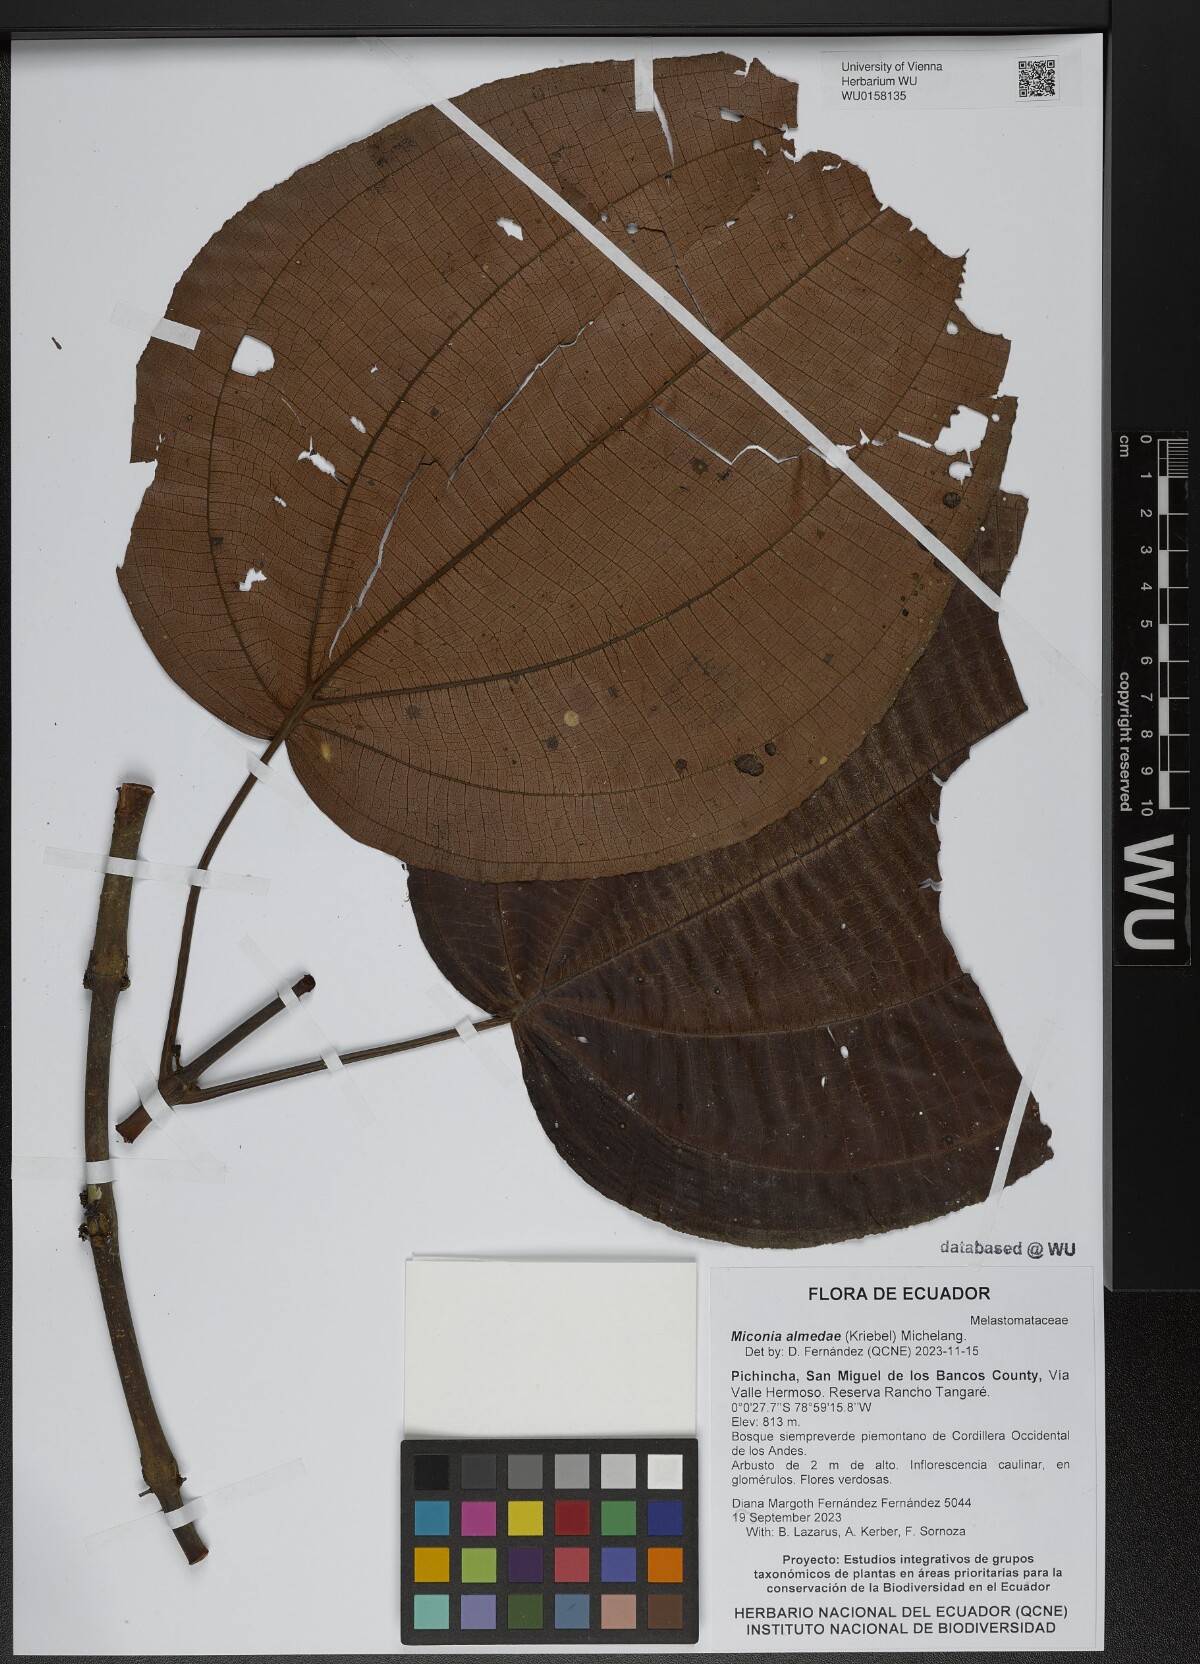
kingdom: Plantae
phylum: Tracheophyta
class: Magnoliopsida
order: Myrtales
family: Melastomataceae
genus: Miconia
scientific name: Miconia almedae
